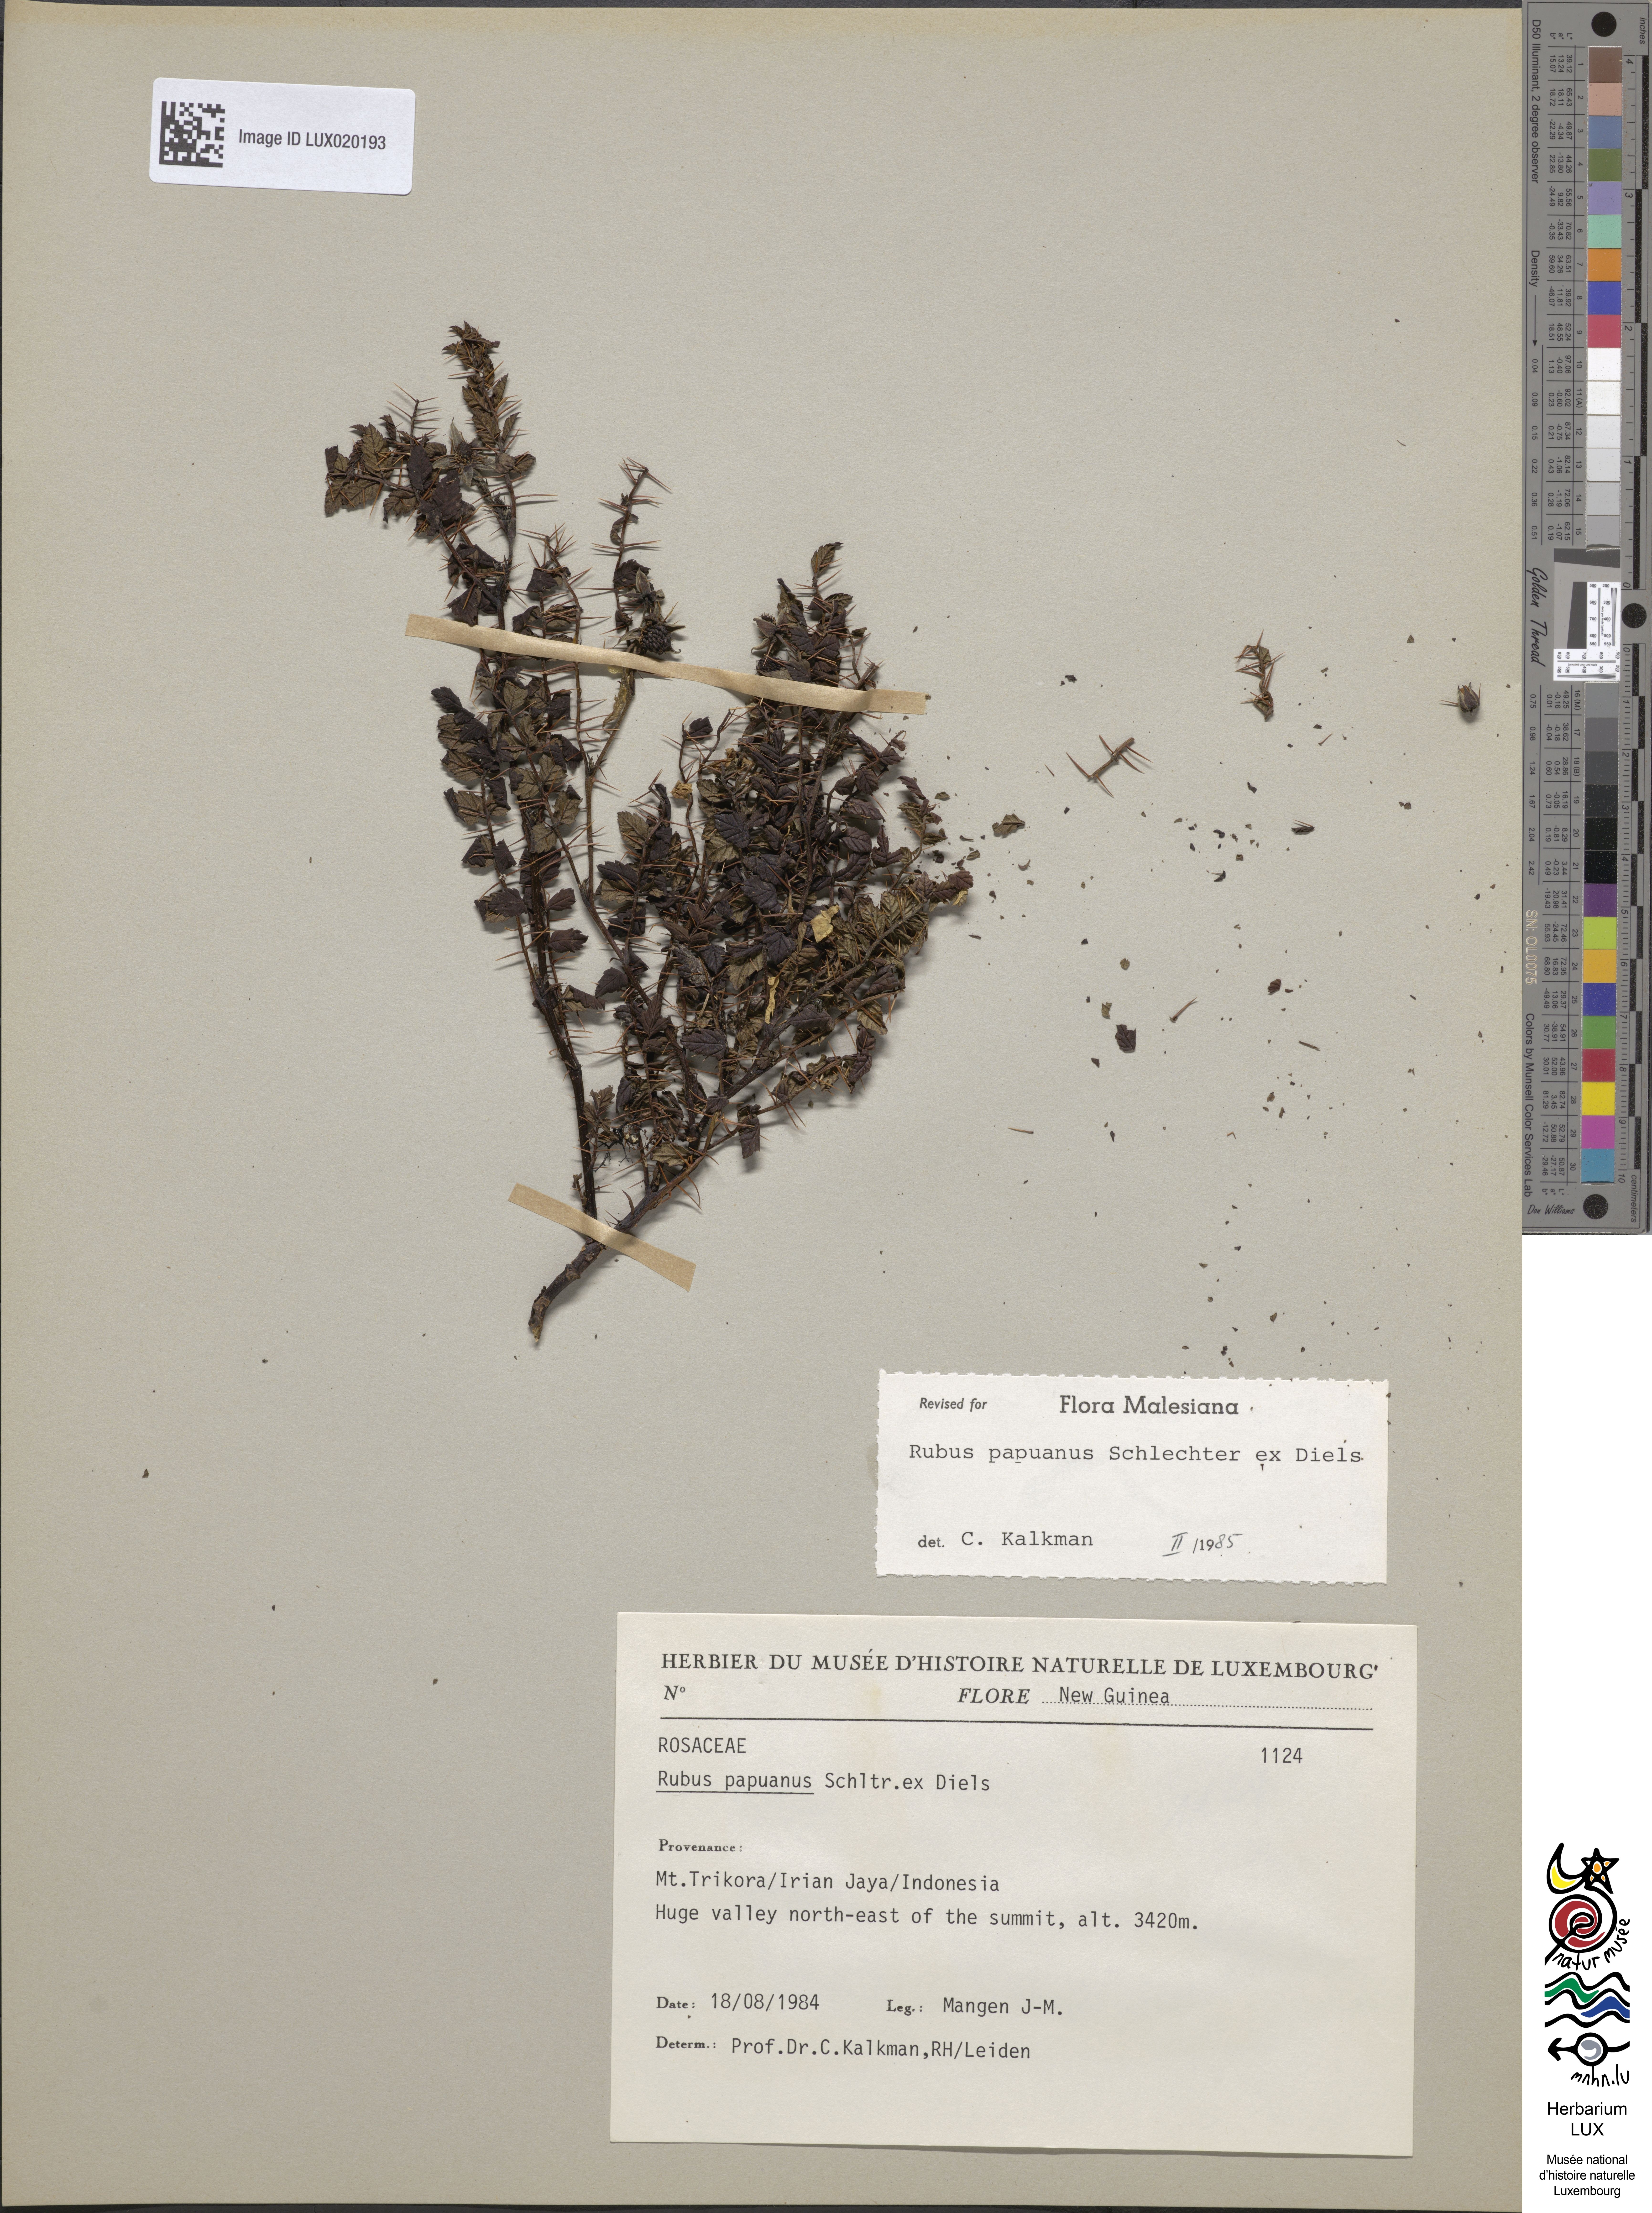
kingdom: Plantae
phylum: Tracheophyta
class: Magnoliopsida
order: Rosales
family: Rosaceae
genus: Rubus
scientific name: Rubus papuanus
